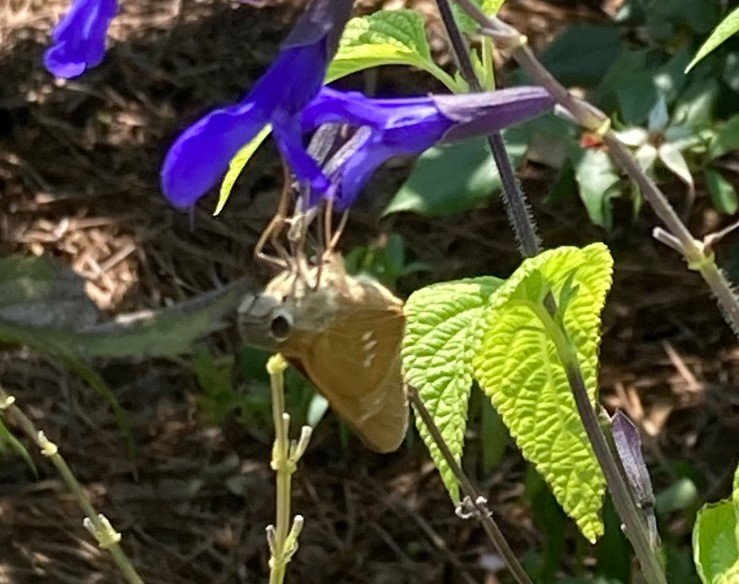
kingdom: Animalia
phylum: Arthropoda
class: Insecta
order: Lepidoptera
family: Hesperiidae
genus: Calpodes
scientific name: Calpodes ethlius
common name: Brazilian Skipper
